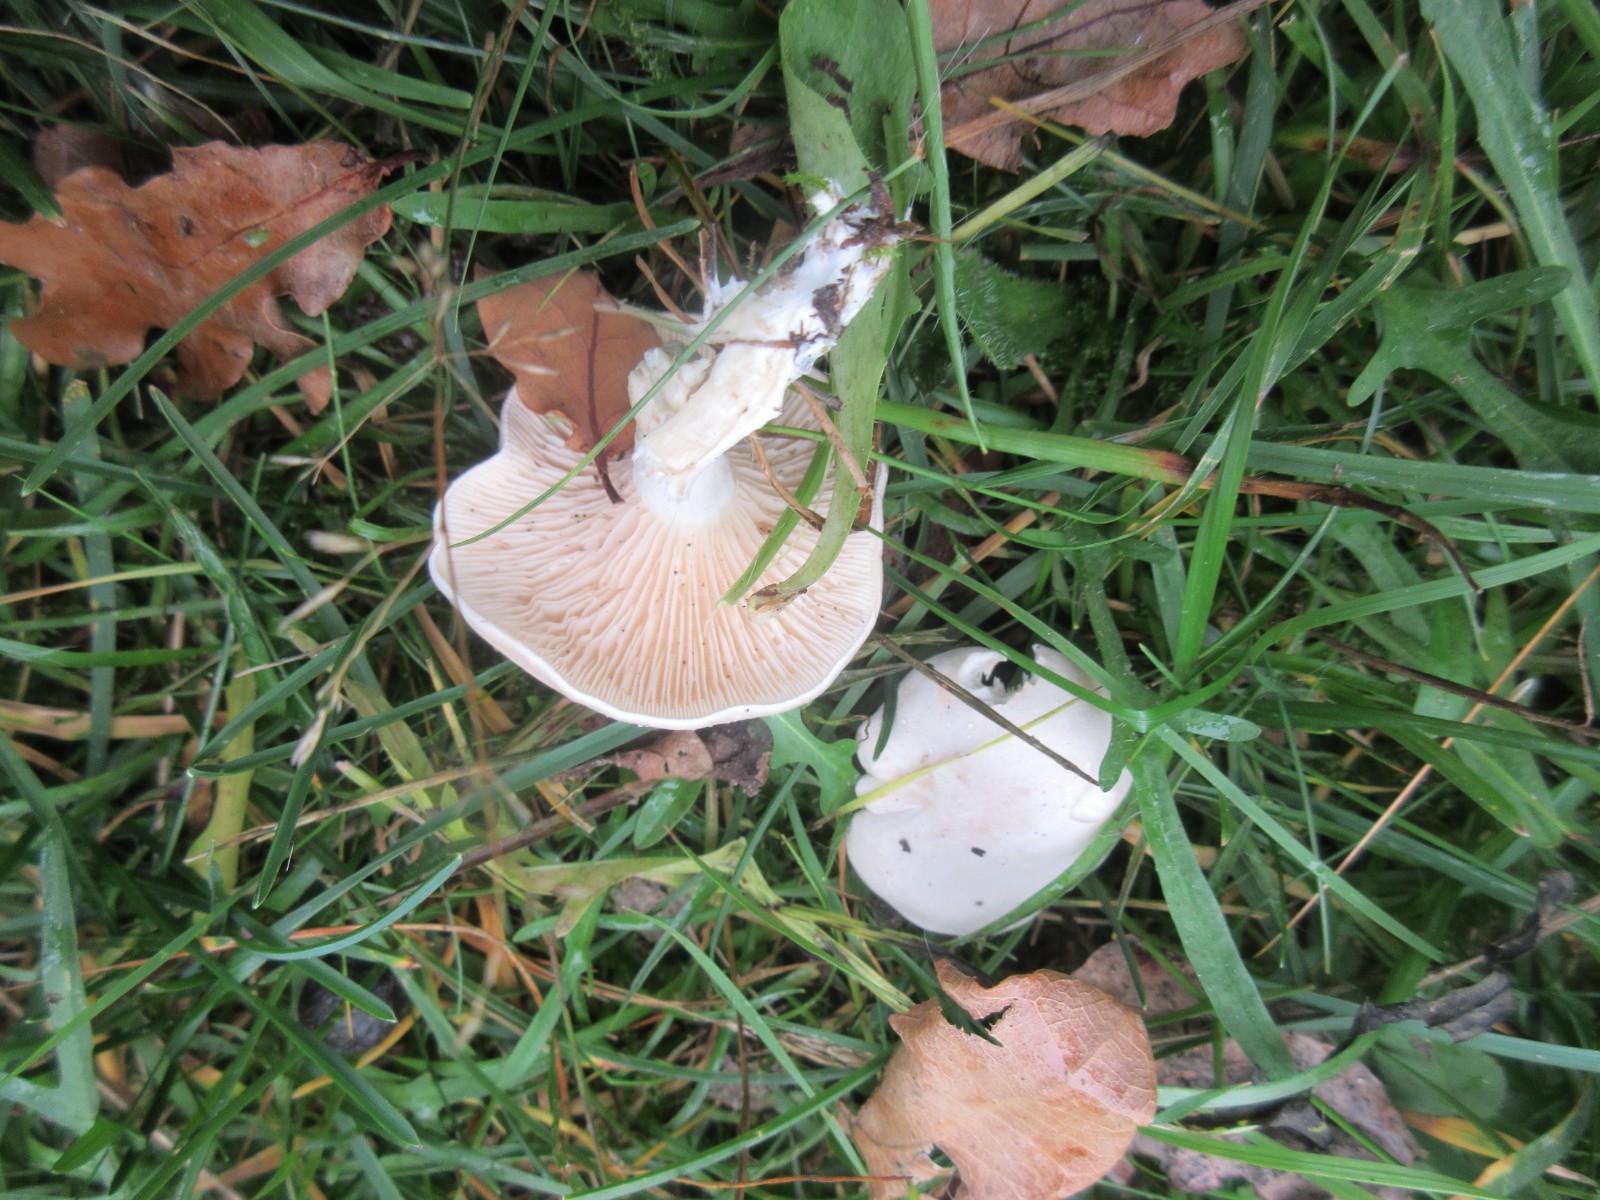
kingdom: Fungi
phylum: Basidiomycota
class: Agaricomycetes
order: Agaricales
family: Entolomataceae
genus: Clitopilus
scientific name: Clitopilus prunulus
